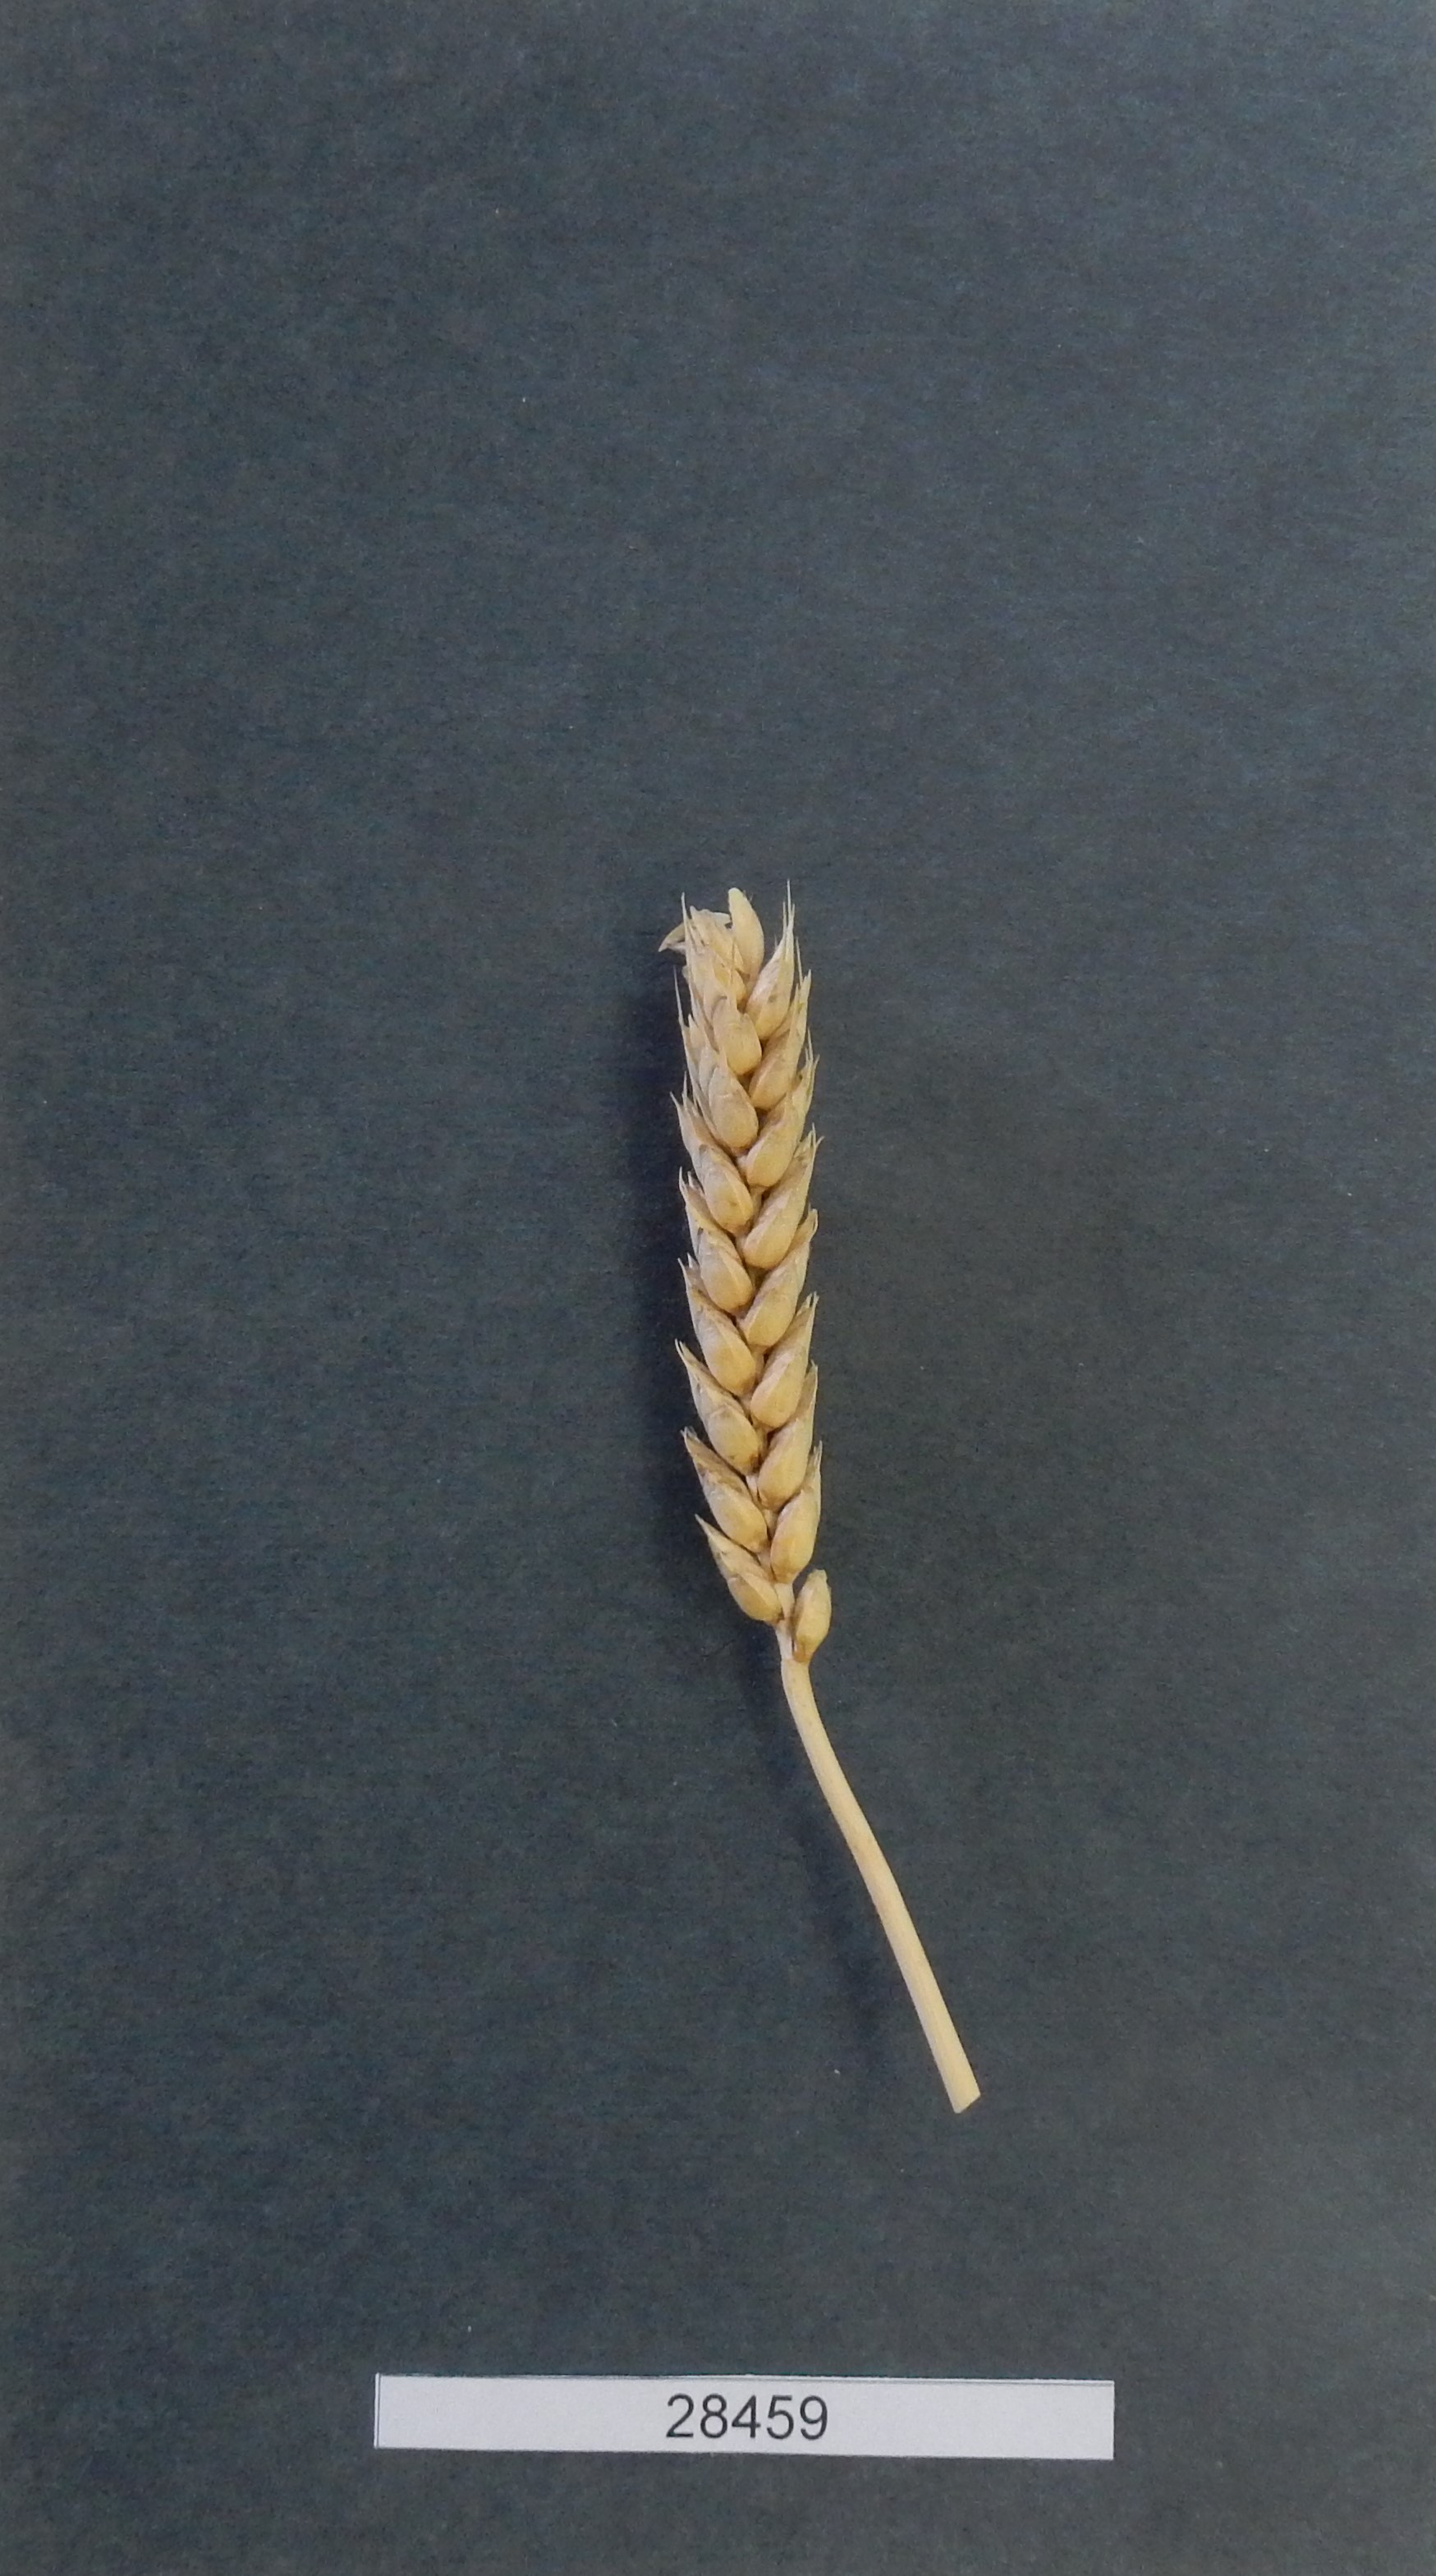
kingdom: Plantae
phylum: Tracheophyta
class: Liliopsida
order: Poales
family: Poaceae
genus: Triticum
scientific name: Triticum aestivum
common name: Common wheat
